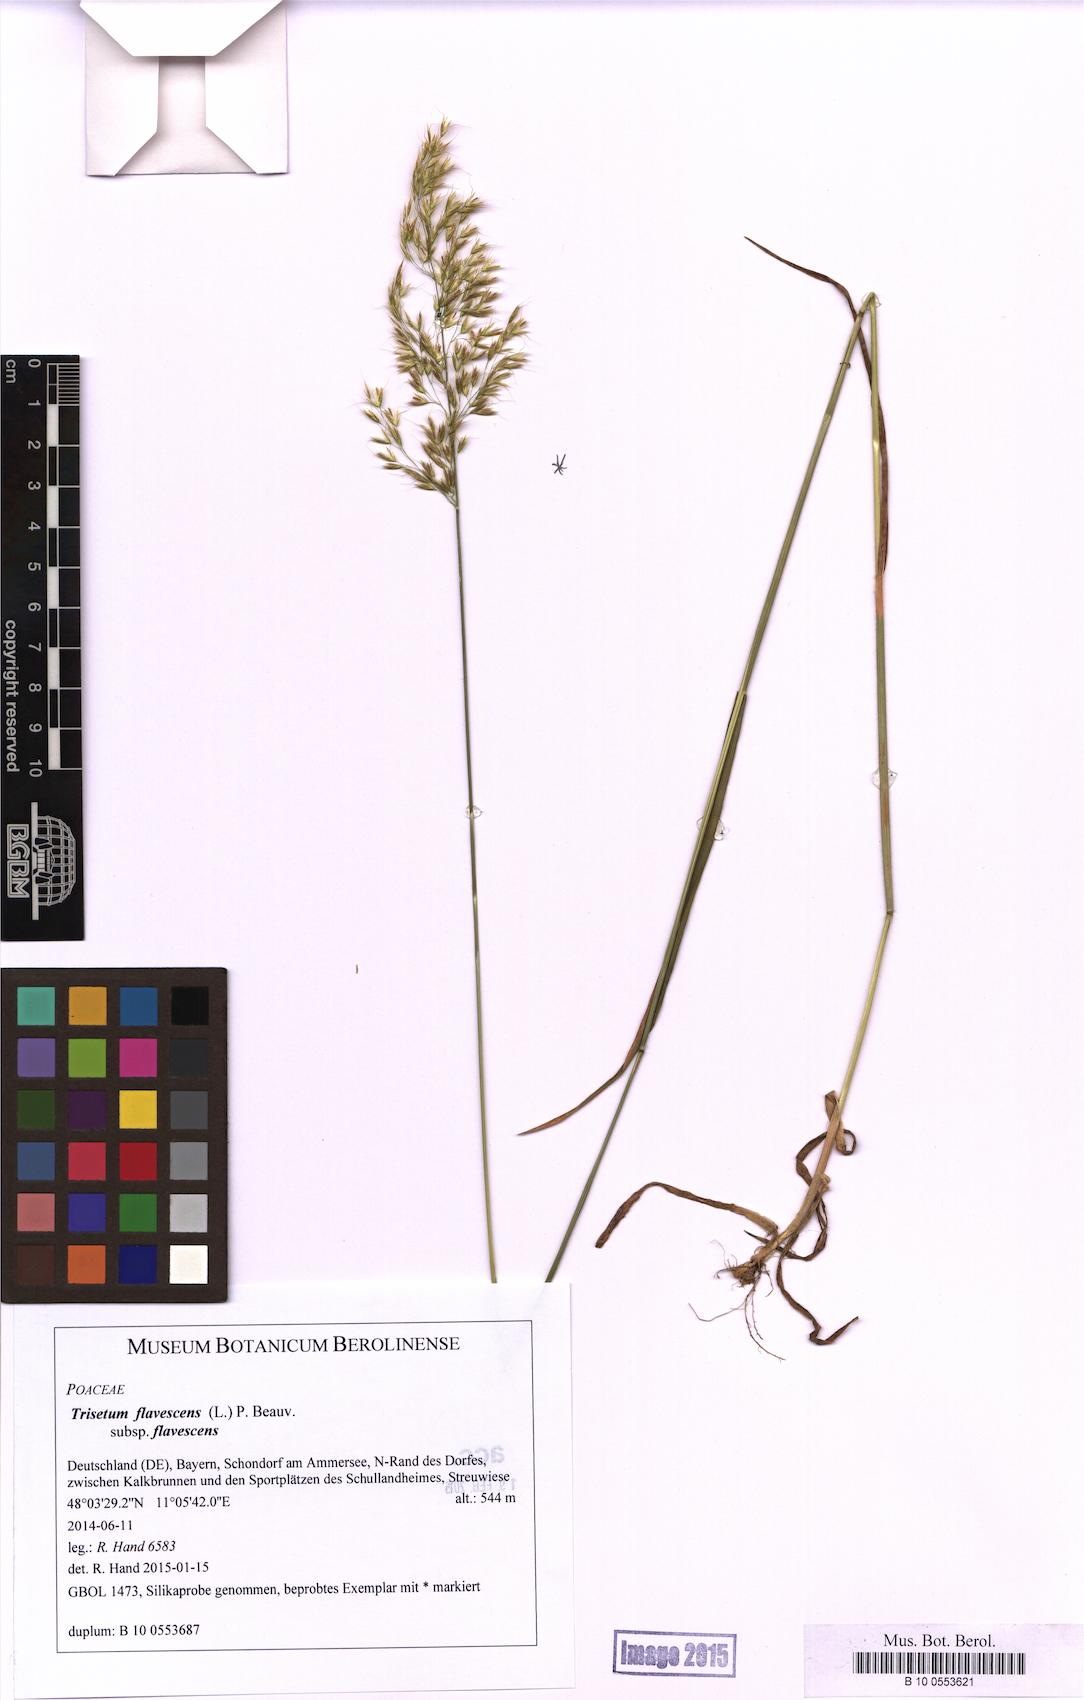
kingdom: Plantae
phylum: Tracheophyta
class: Liliopsida
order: Poales
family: Poaceae
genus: Trisetum
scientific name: Trisetum flavescens
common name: Yellow oat-grass
